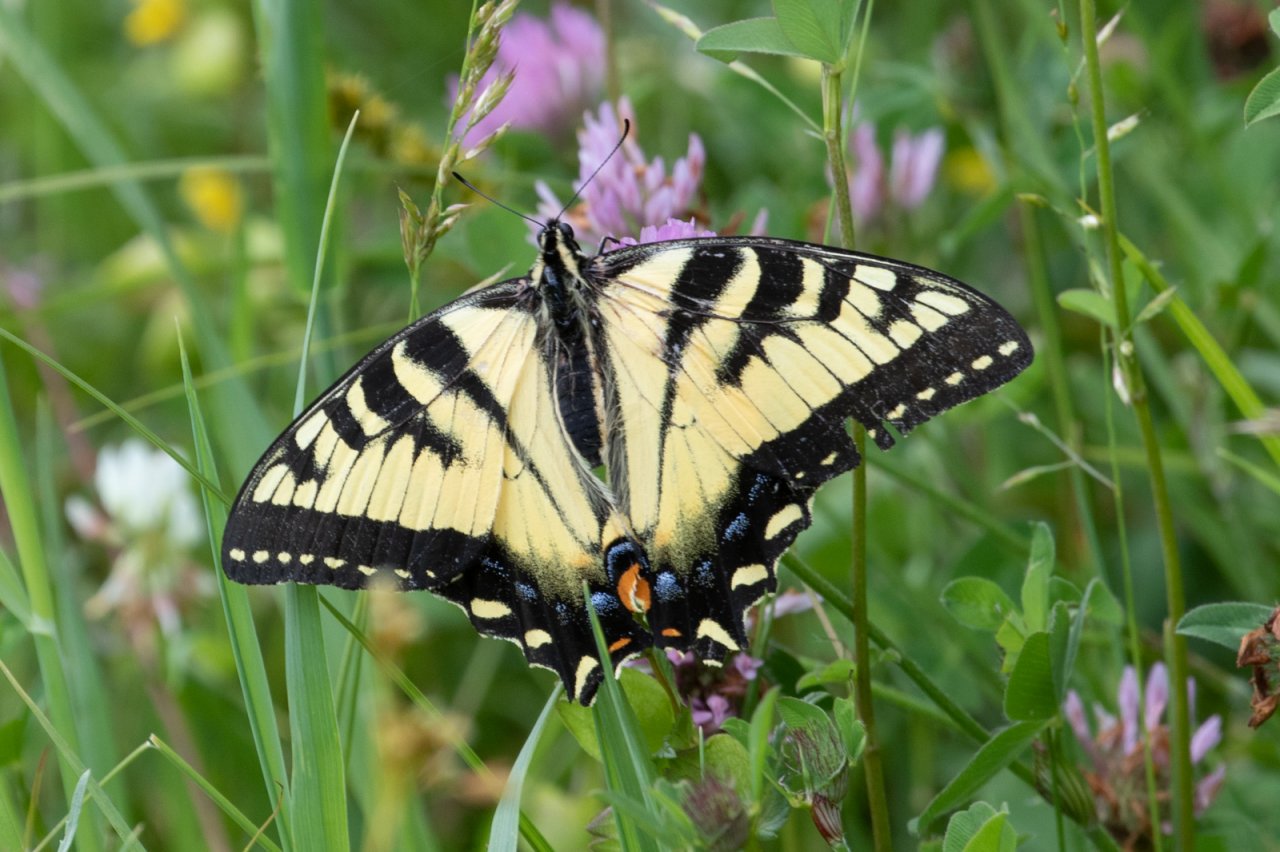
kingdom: Animalia
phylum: Arthropoda
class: Insecta
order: Lepidoptera
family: Papilionidae
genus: Pterourus
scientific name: Pterourus canadensis
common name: Canadian Tiger Swallowtail
